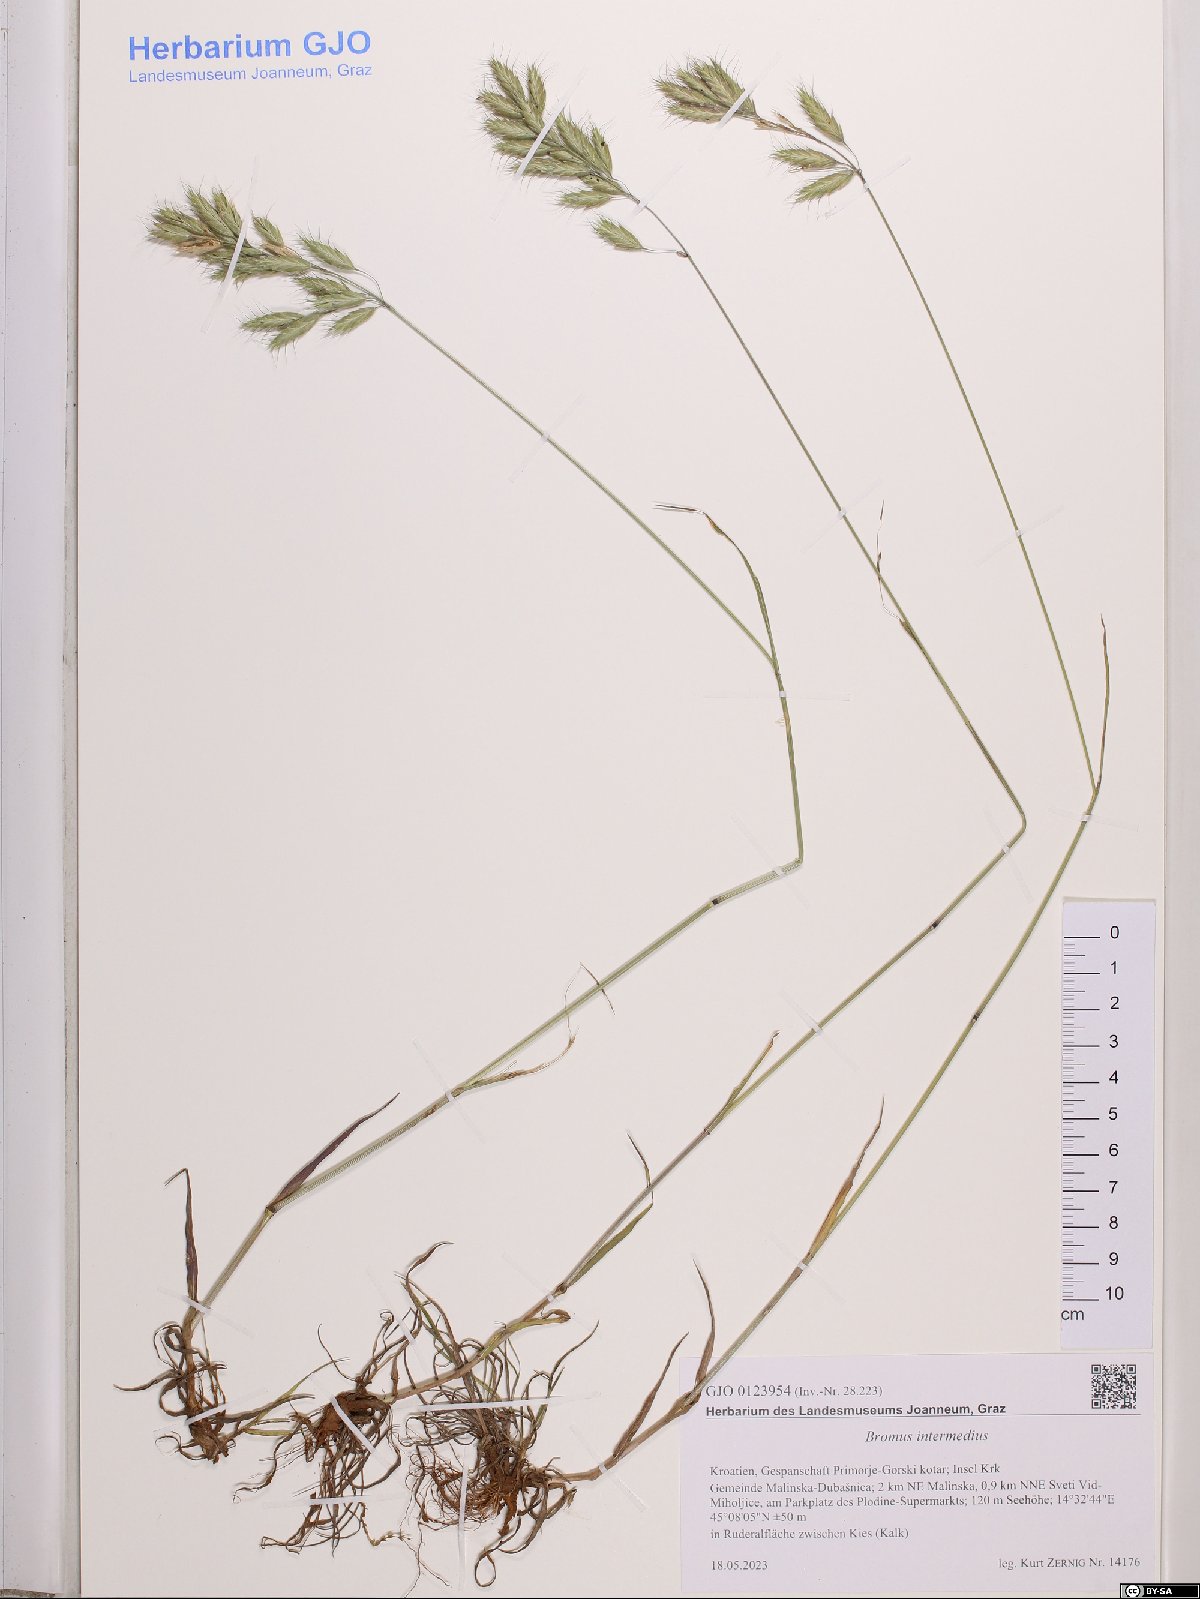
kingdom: Plantae
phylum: Tracheophyta
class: Liliopsida
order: Poales
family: Poaceae
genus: Bromus
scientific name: Bromus intermedius
